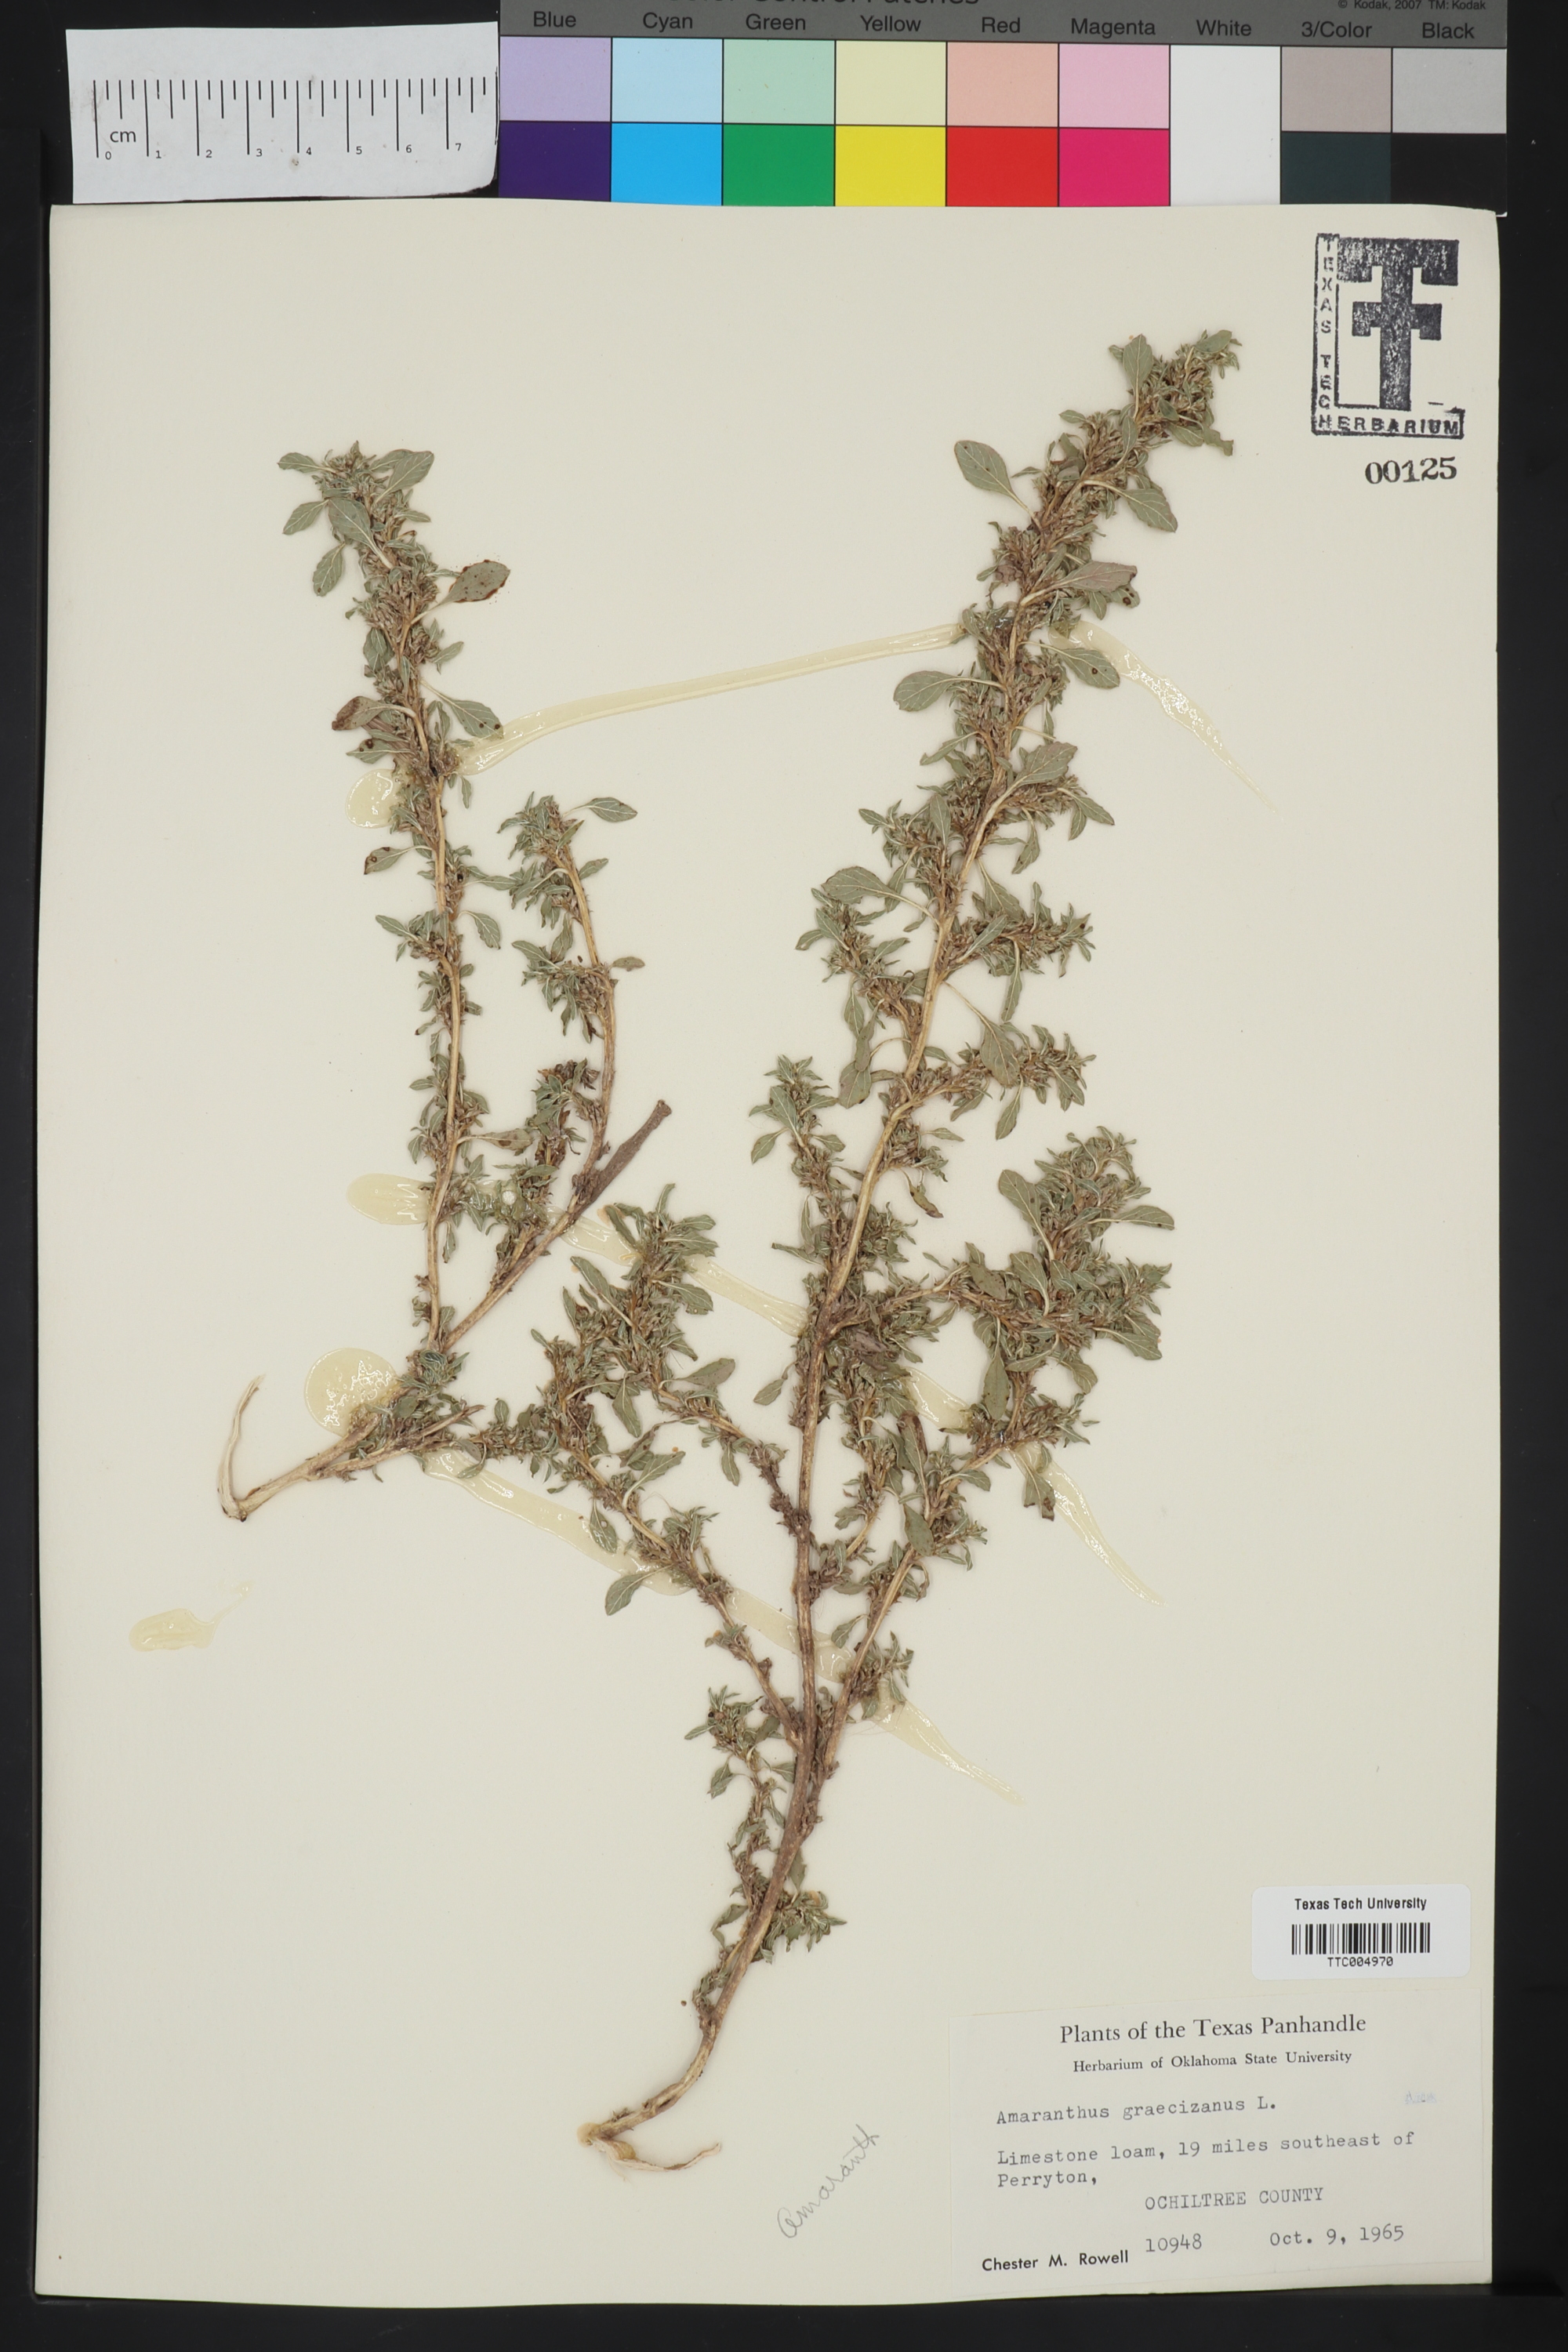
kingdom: Plantae
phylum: Tracheophyta
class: Magnoliopsida
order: Caryophyllales
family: Amaranthaceae
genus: Amaranthus
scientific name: Amaranthus graecizans
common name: Mediterranean amaranth
